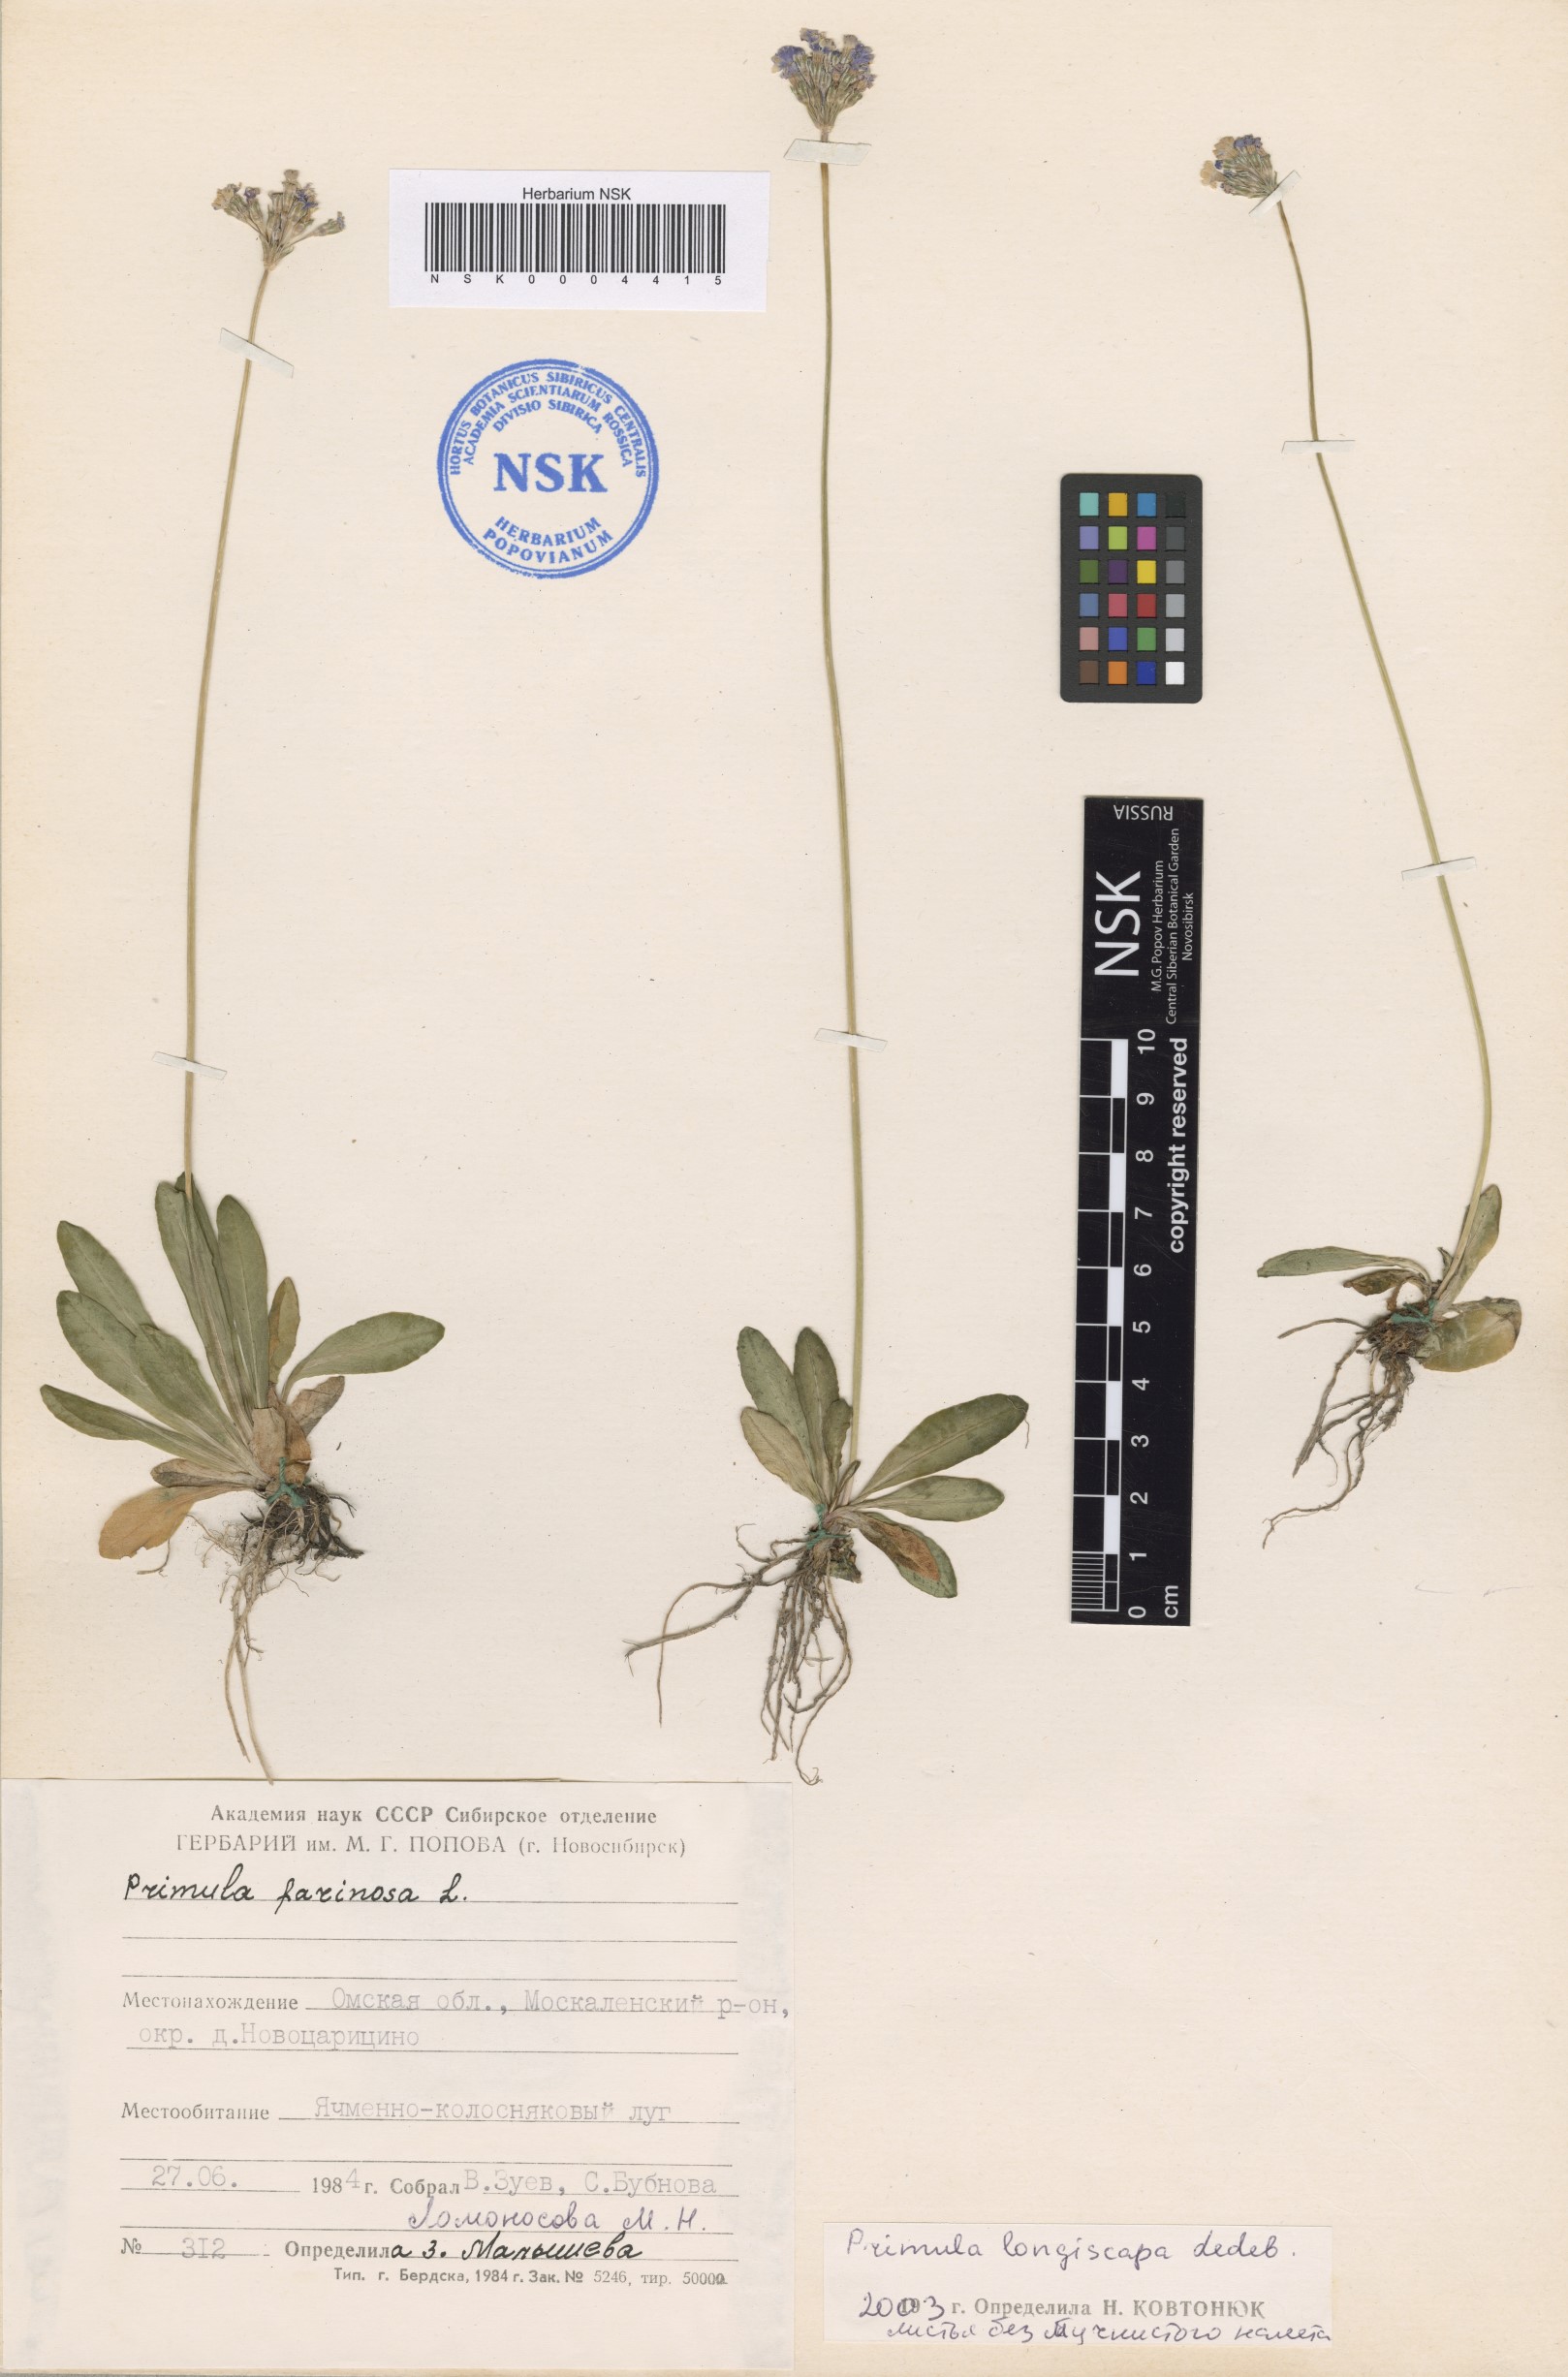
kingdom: Plantae
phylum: Tracheophyta
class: Magnoliopsida
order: Ericales
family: Primulaceae
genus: Primula
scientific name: Primula longiscapa
